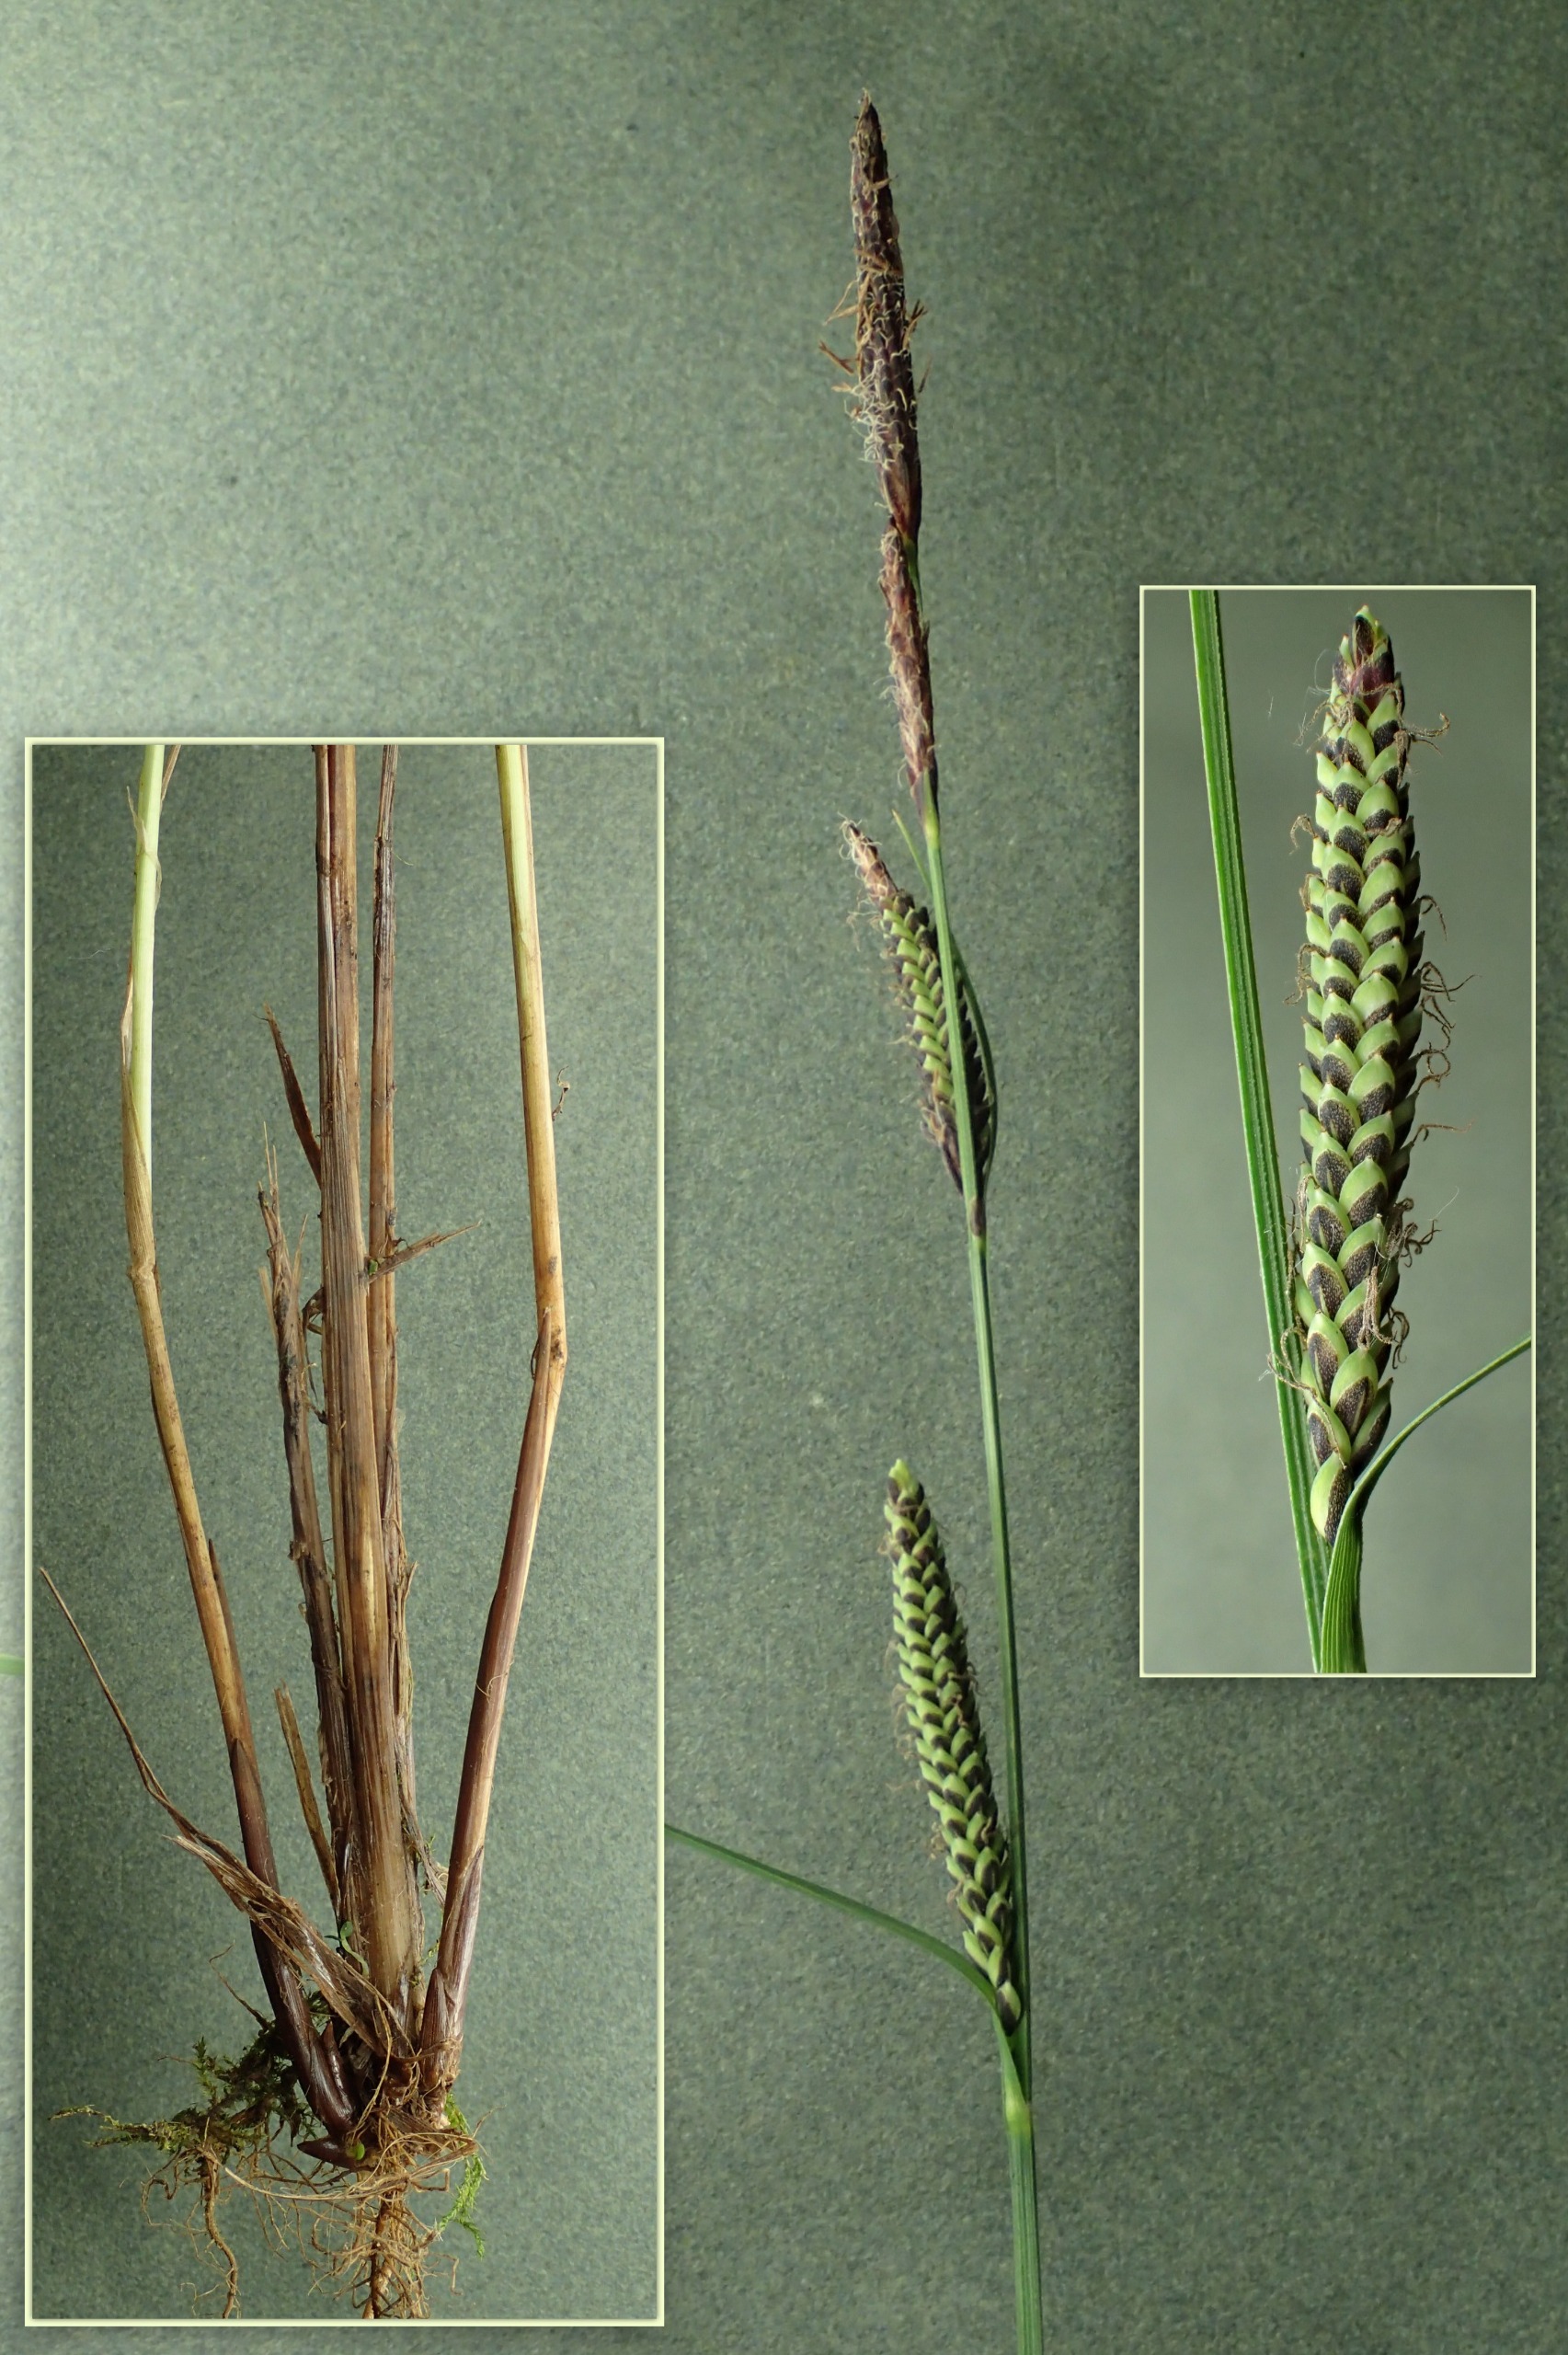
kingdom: Plantae
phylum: Tracheophyta
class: Liliopsida
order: Poales
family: Cyperaceae
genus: Carex
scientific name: Carex nigra
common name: Knold-star
